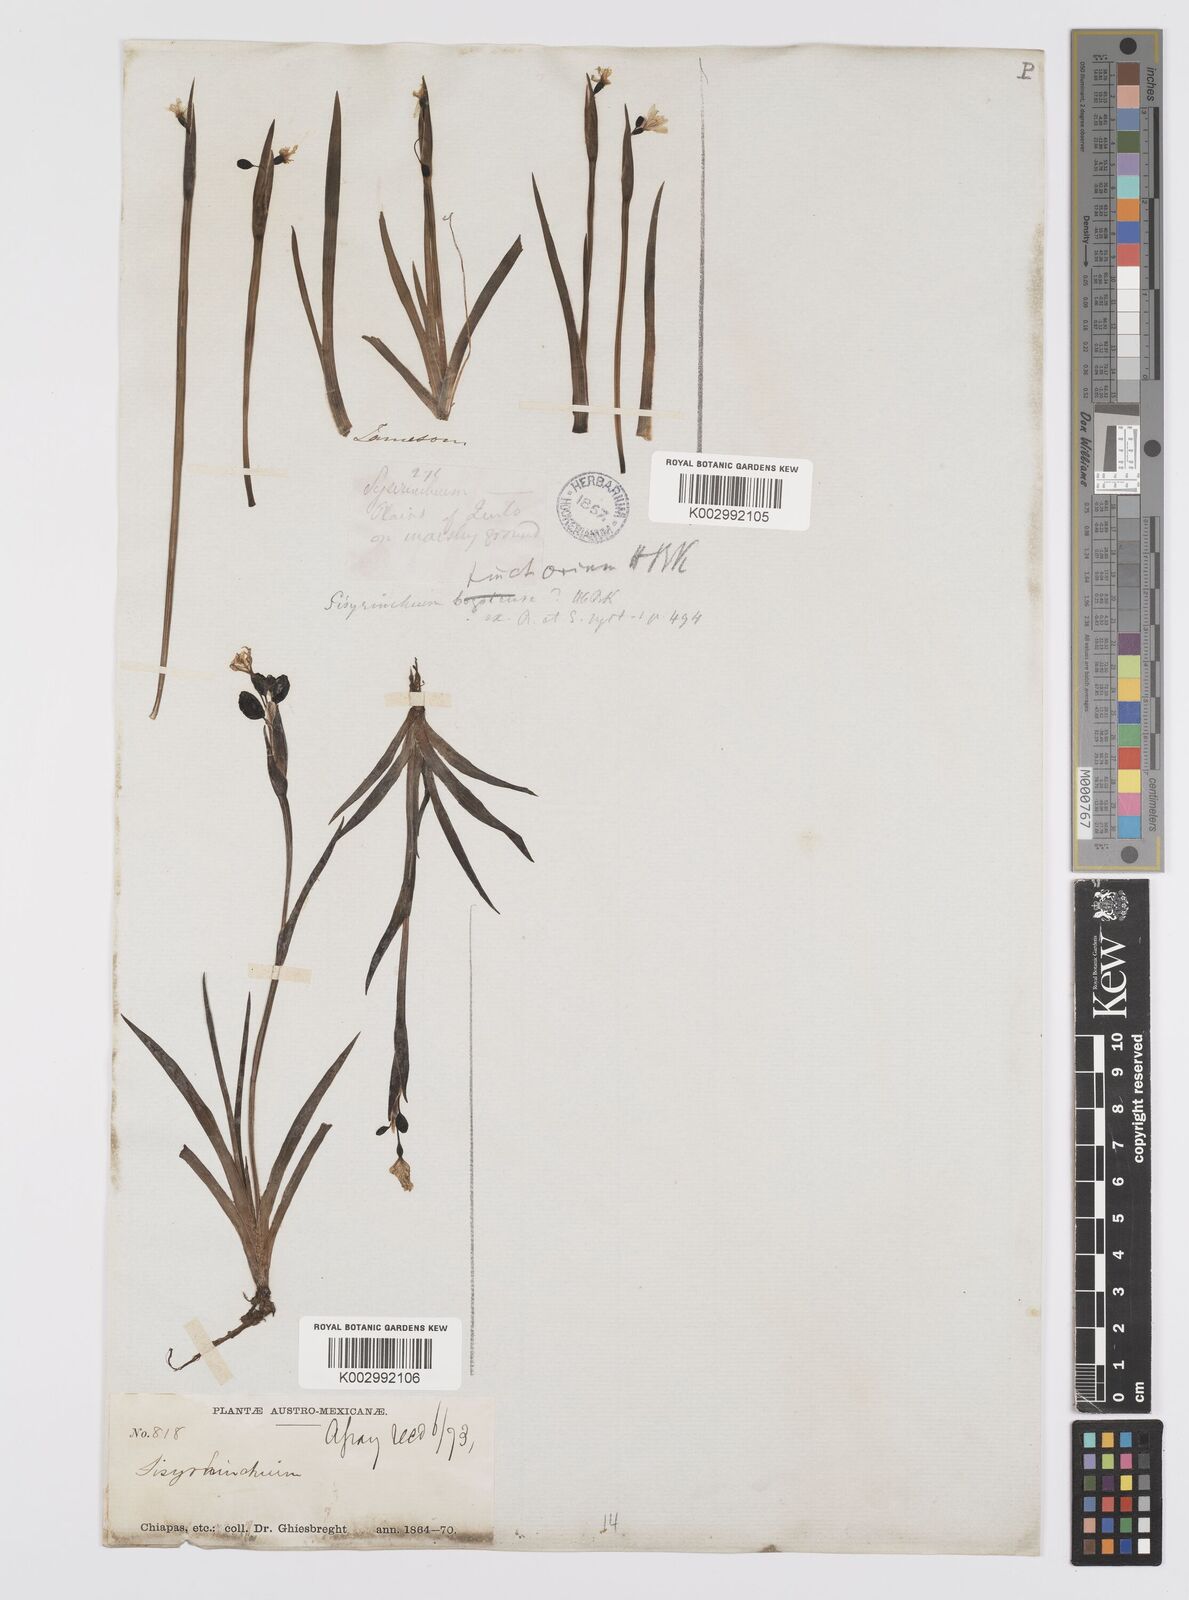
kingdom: Plantae
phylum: Tracheophyta
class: Liliopsida
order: Asparagales
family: Iridaceae
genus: Sisyrinchium
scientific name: Sisyrinchium tinctorium
